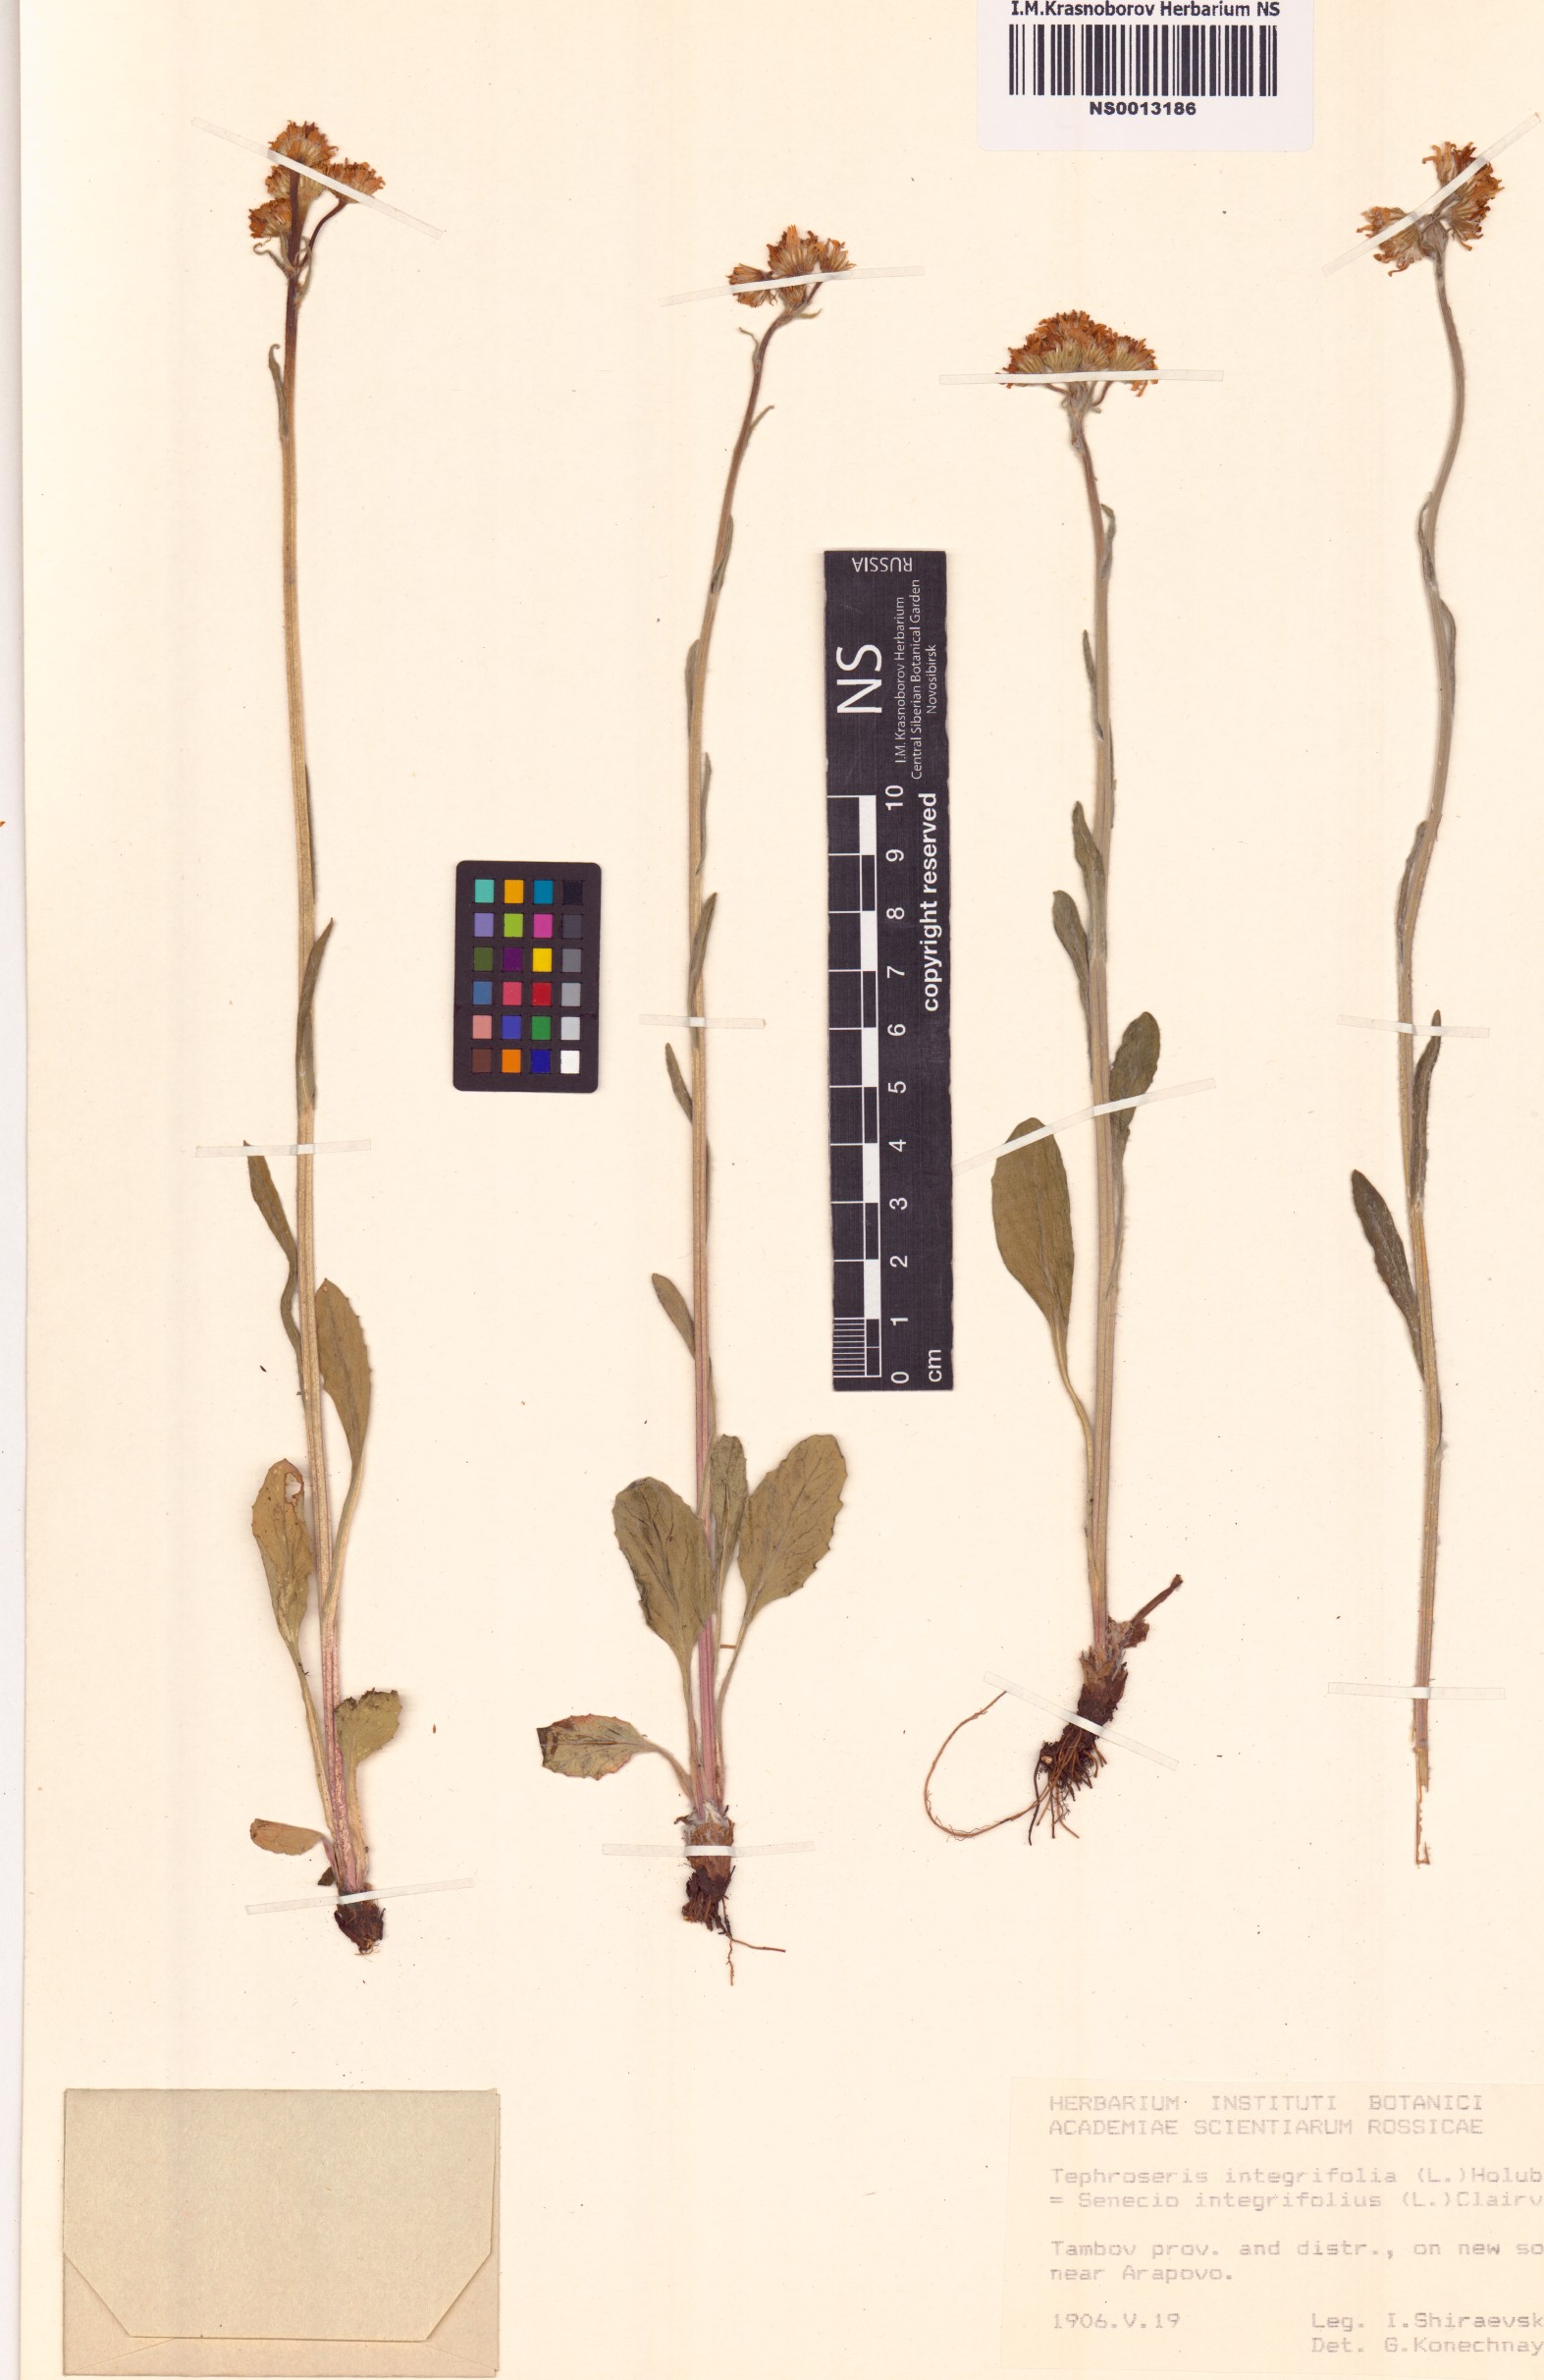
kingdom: Plantae
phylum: Tracheophyta
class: Magnoliopsida
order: Asterales
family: Asteraceae
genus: Tephroseris
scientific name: Tephroseris integrifolia
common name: Field fleawort
